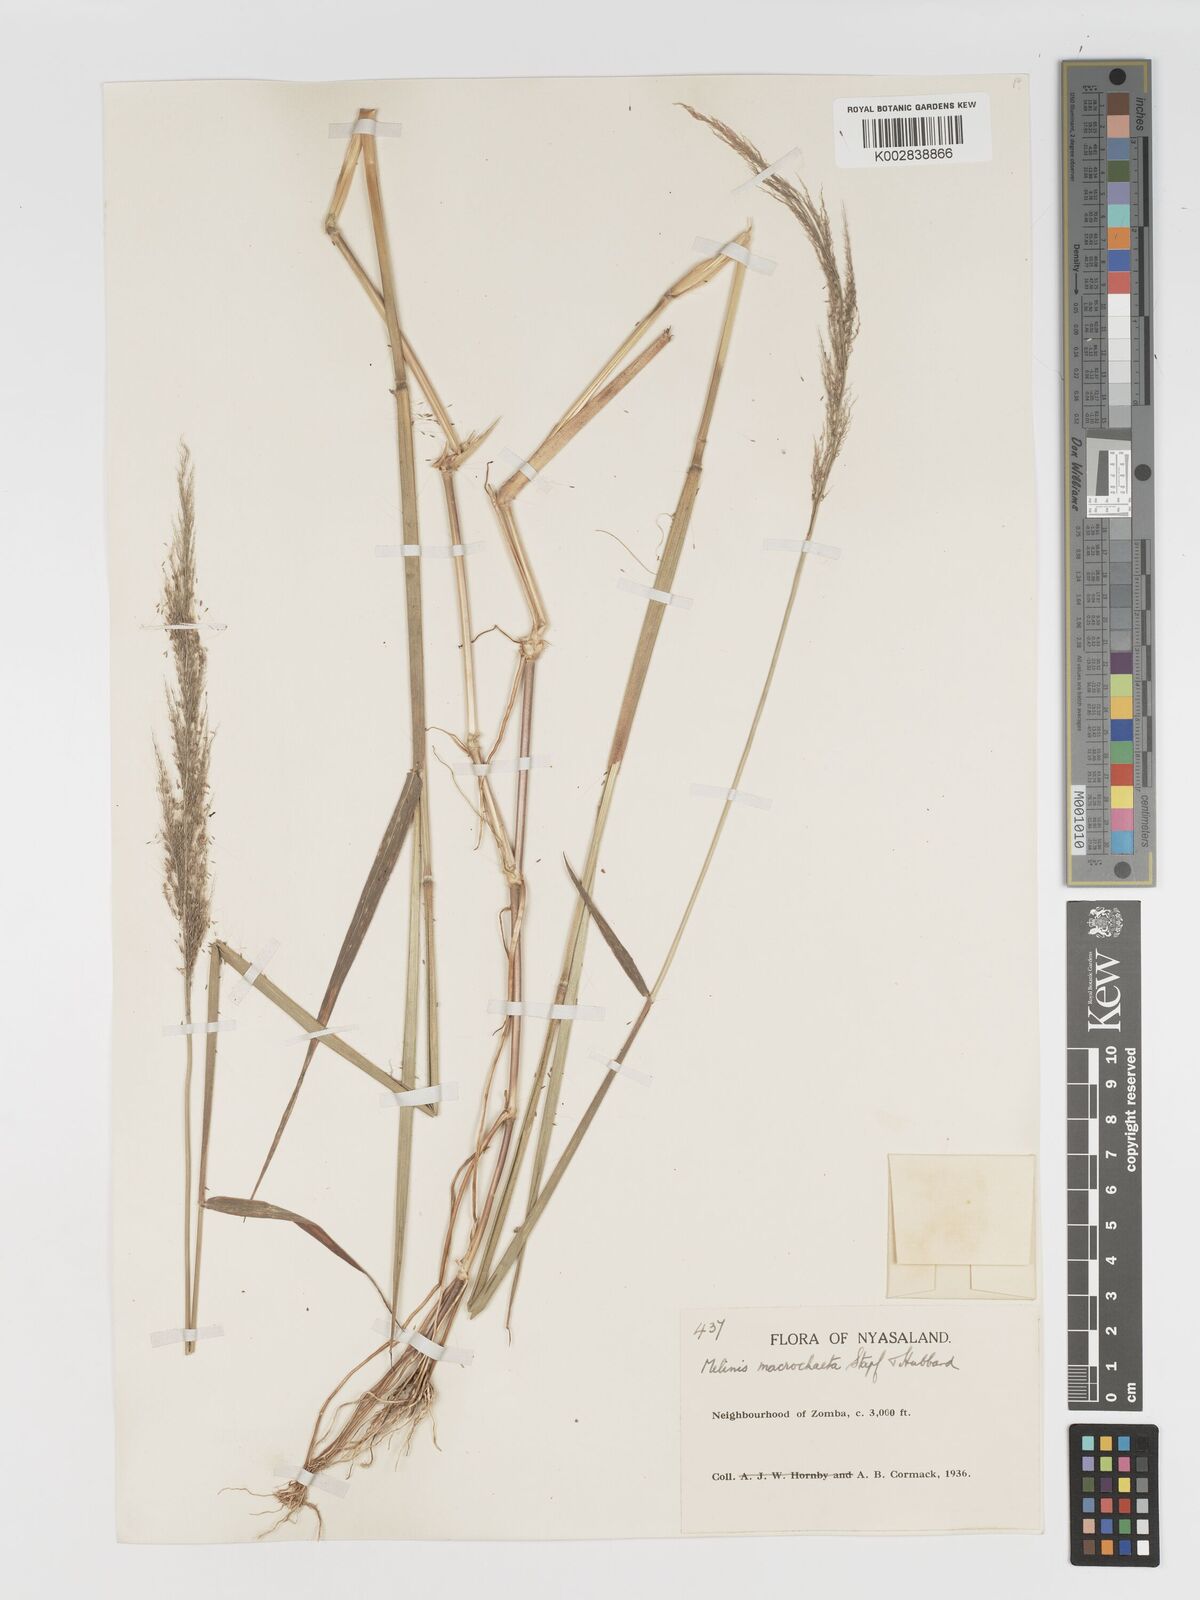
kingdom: Plantae
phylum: Tracheophyta
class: Liliopsida
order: Poales
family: Poaceae
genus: Melinis
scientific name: Melinis macrochaeta
